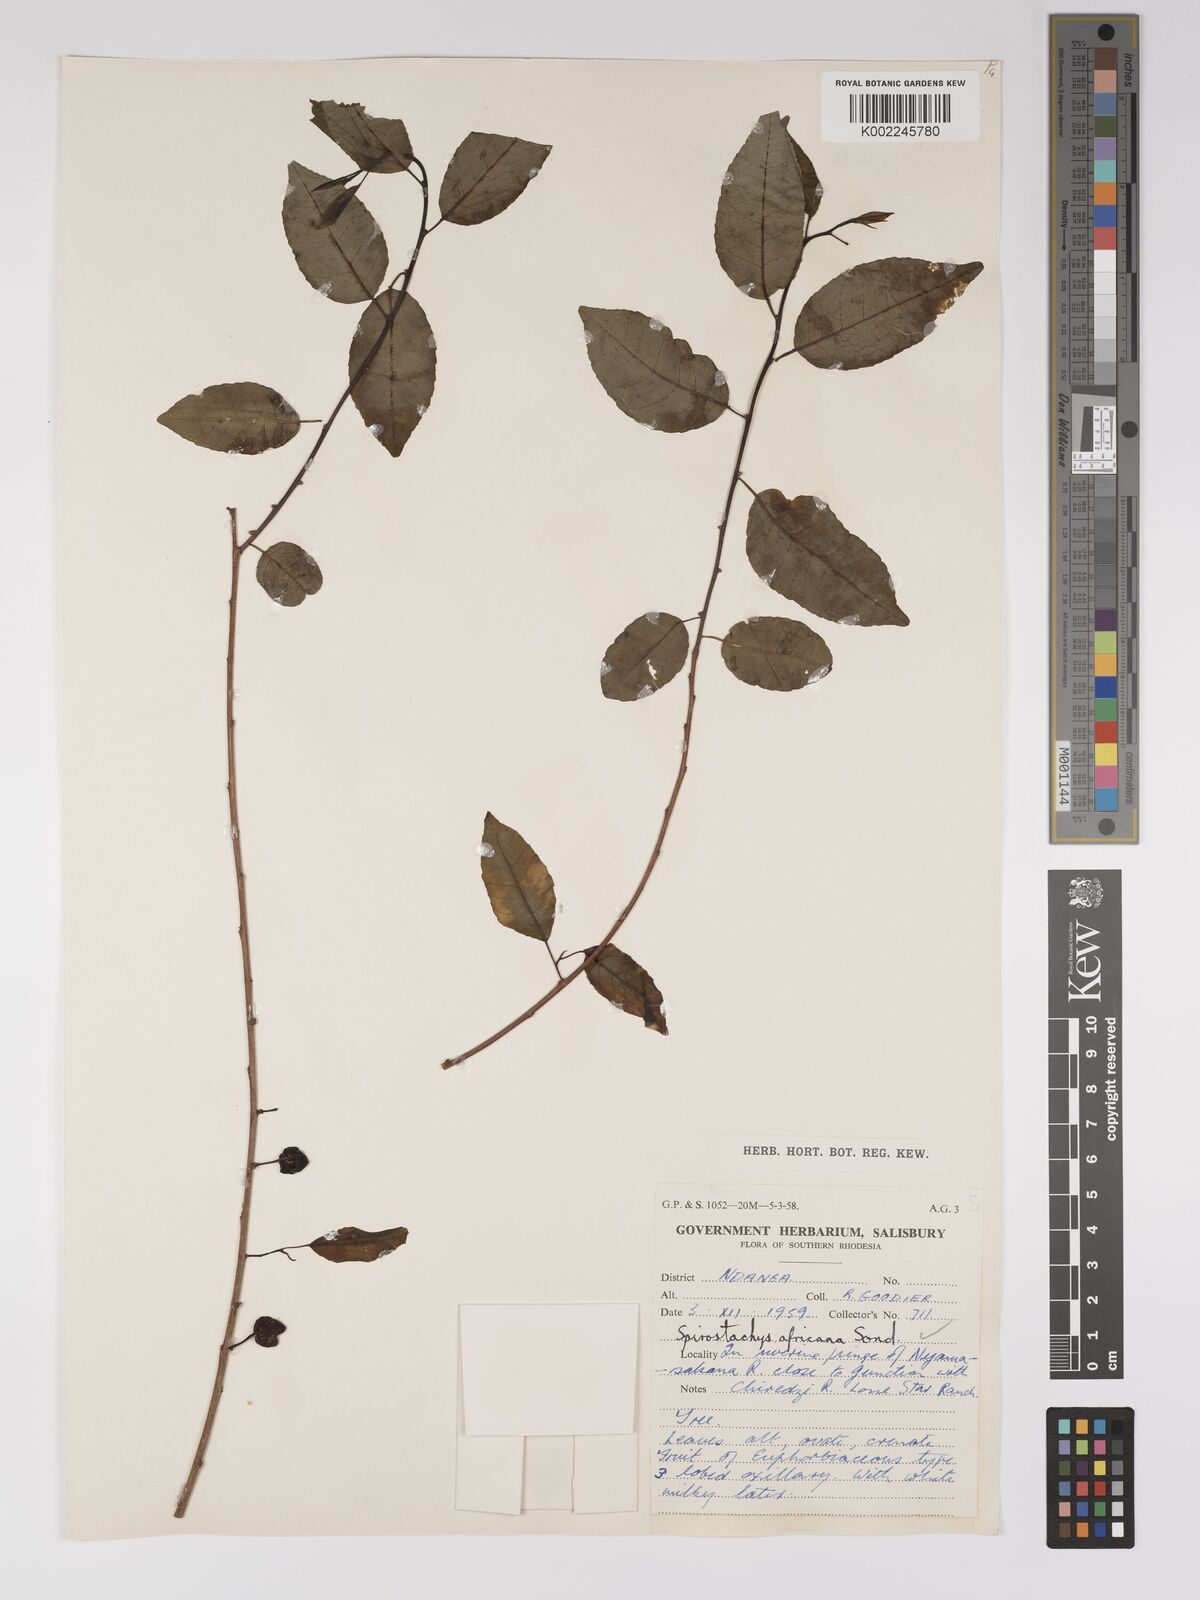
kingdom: Plantae
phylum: Tracheophyta
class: Magnoliopsida
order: Malpighiales
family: Euphorbiaceae
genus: Spirostachys
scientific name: Spirostachys africana
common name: Tamboti
